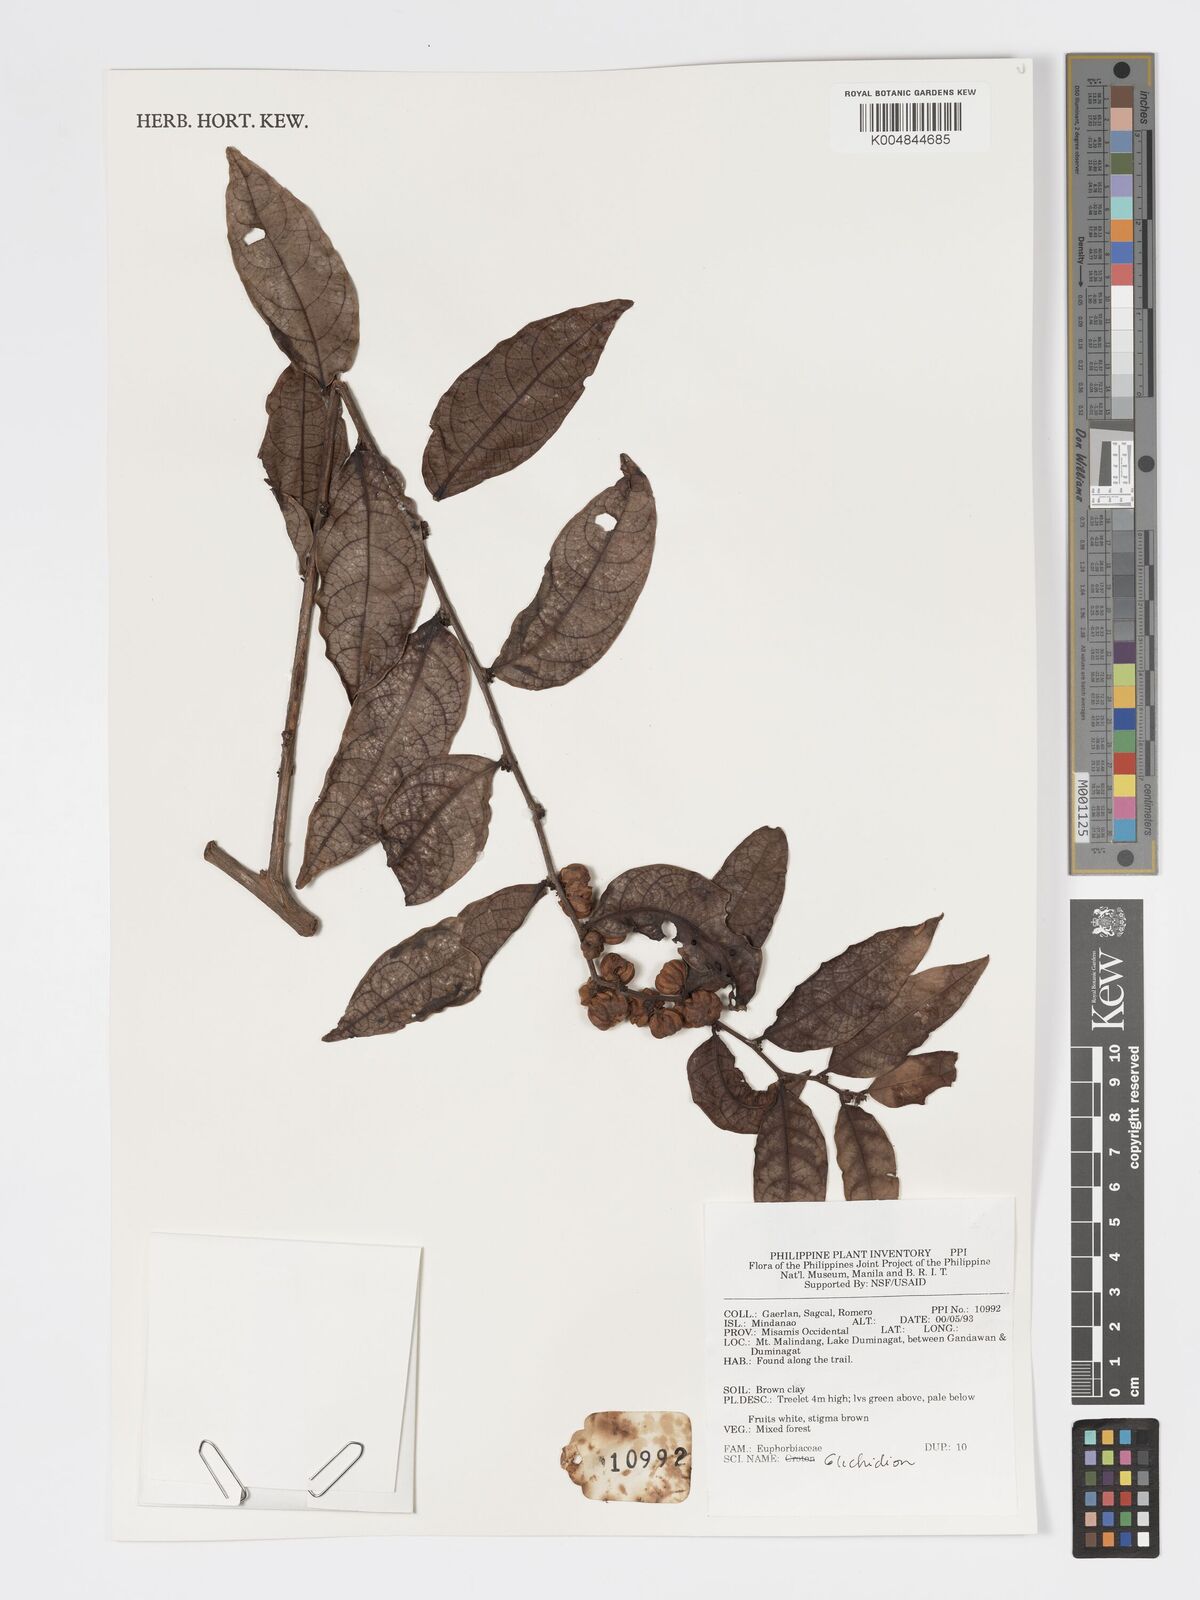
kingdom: Plantae
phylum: Tracheophyta
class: Magnoliopsida
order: Malpighiales
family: Phyllanthaceae
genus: Glochidion
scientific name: Glochidion
